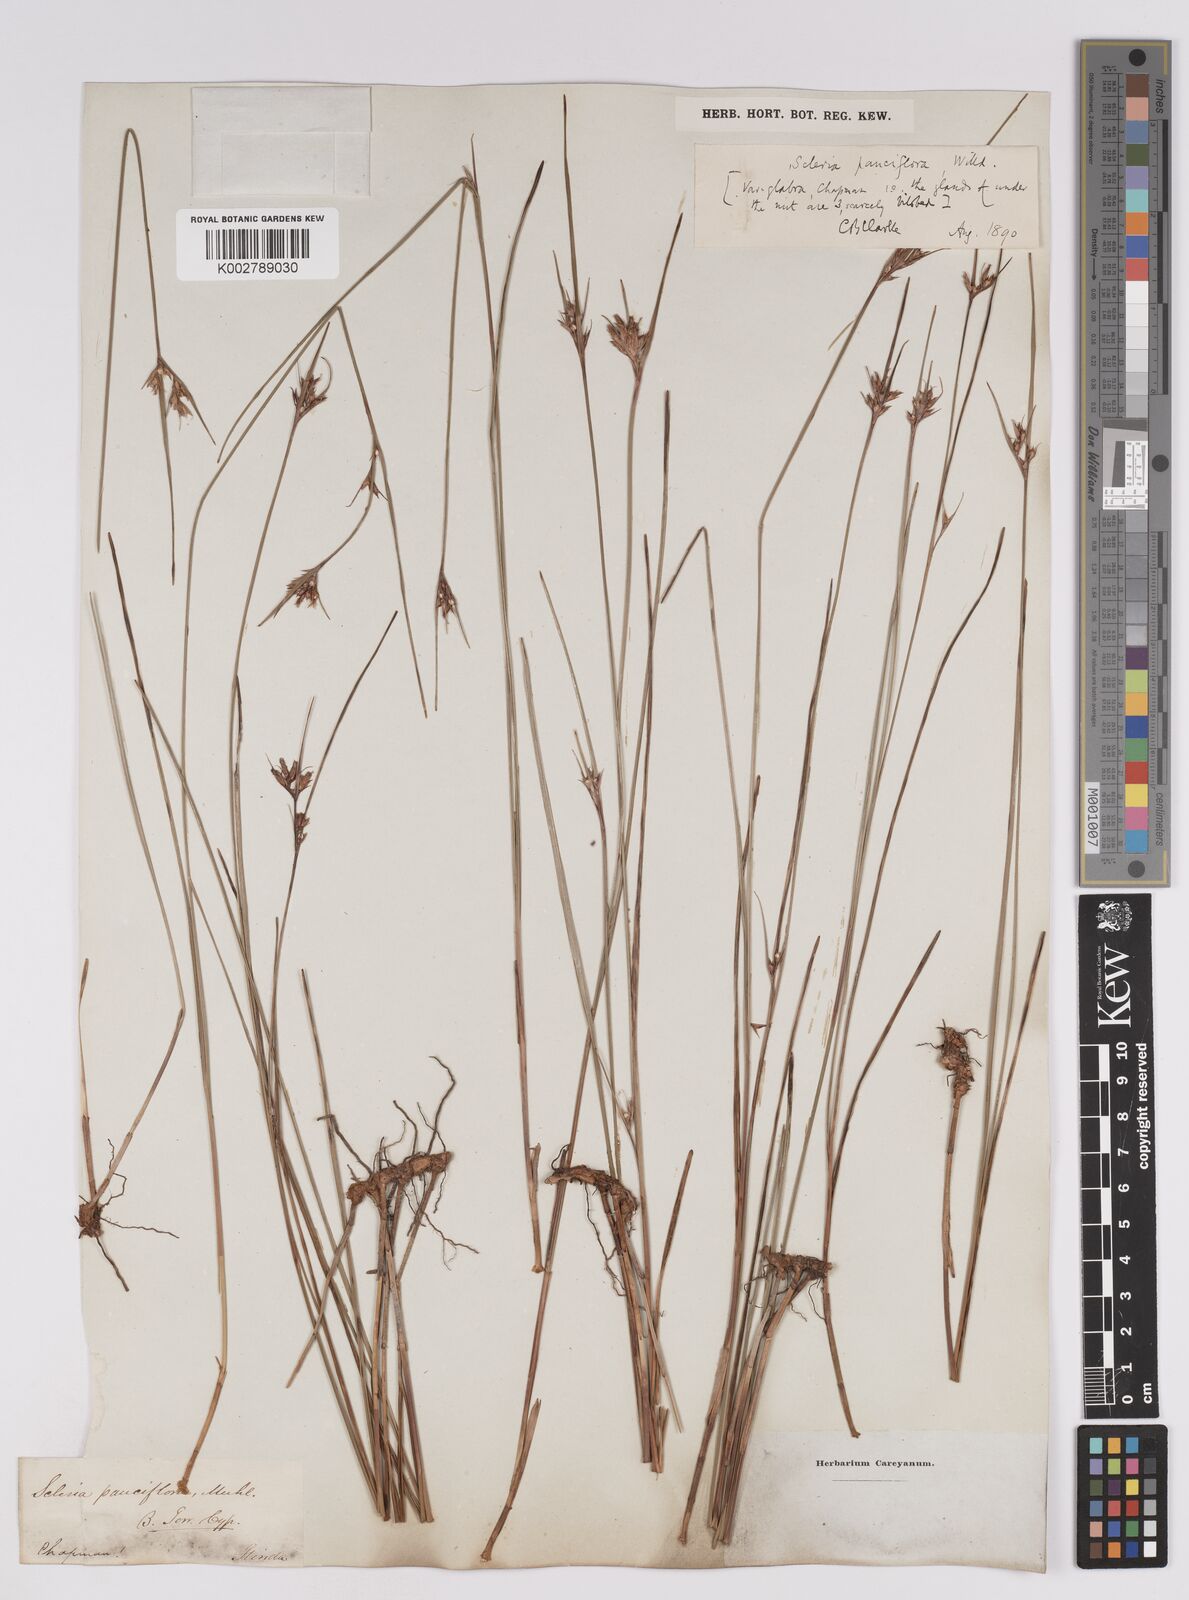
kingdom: Plantae
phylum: Tracheophyta
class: Liliopsida
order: Poales
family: Cyperaceae
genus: Scleria
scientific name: Scleria pauciflora
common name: Few-flowered nutrush
